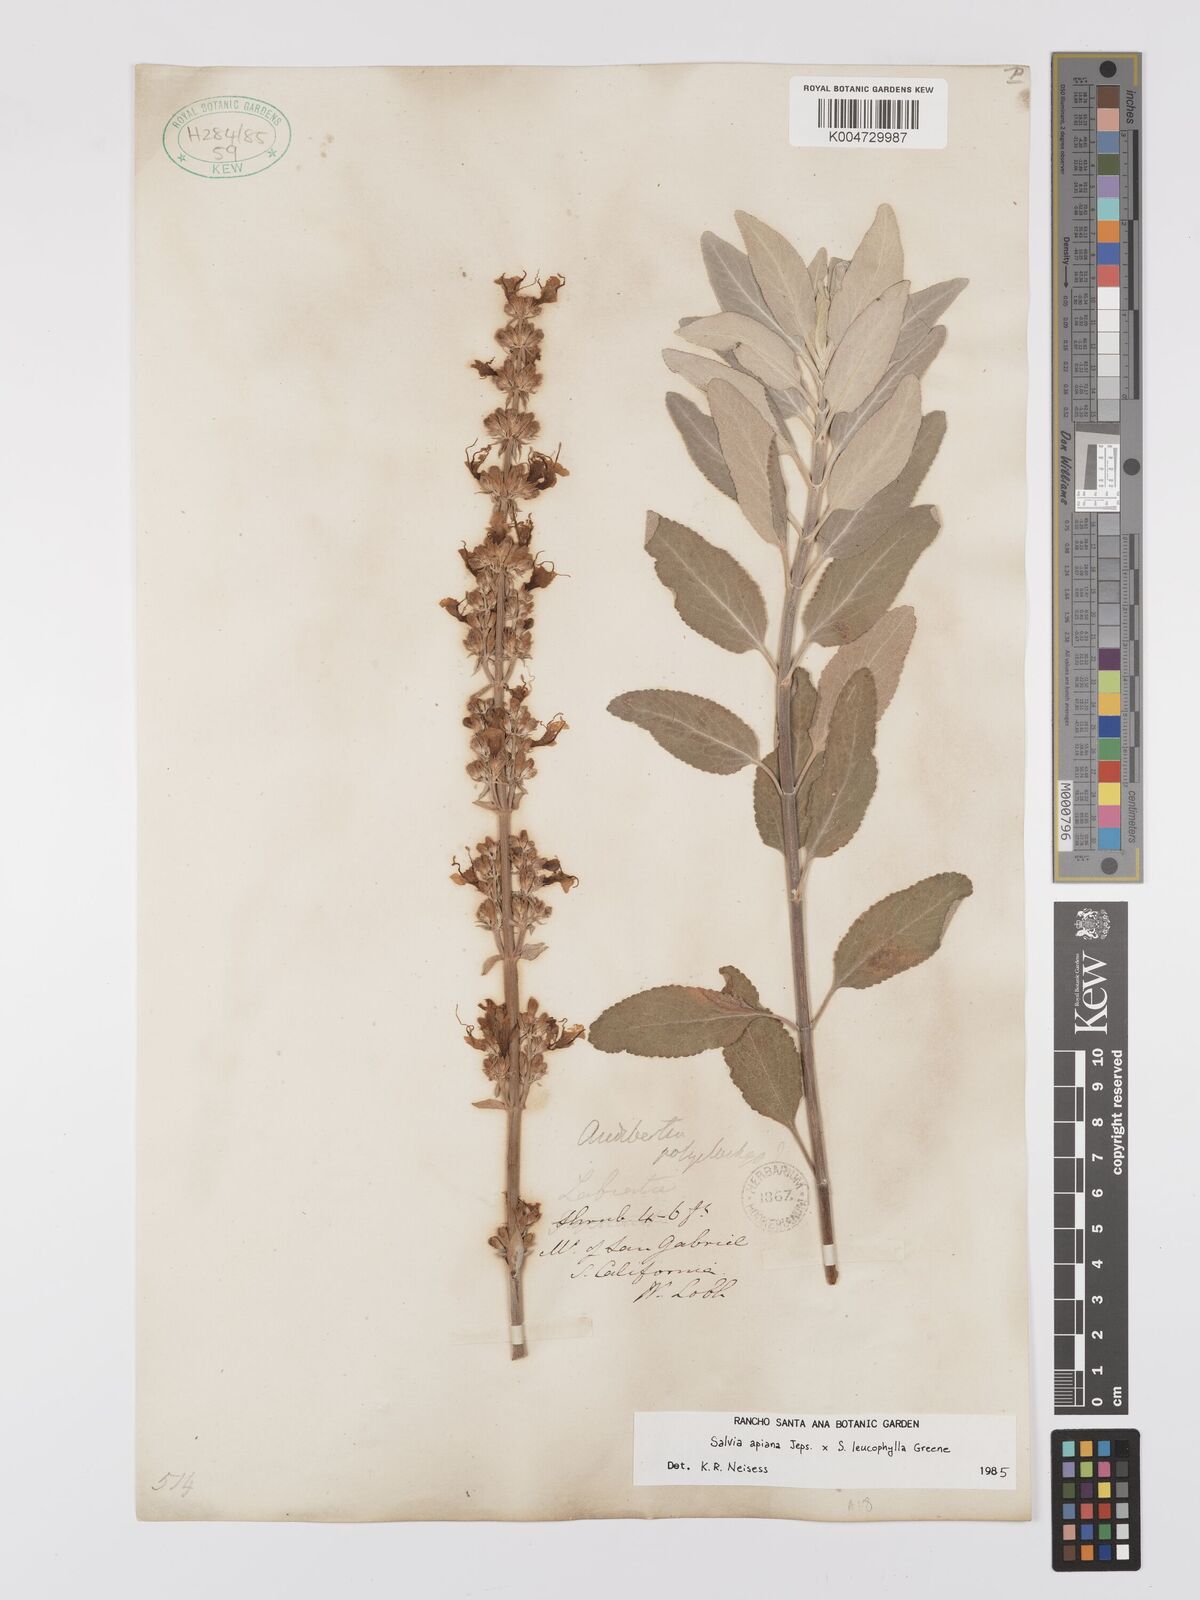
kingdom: Plantae
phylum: Tracheophyta
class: Magnoliopsida
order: Lamiales
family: Lamiaceae
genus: Salvia
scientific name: Salvia apiana
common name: White sage
